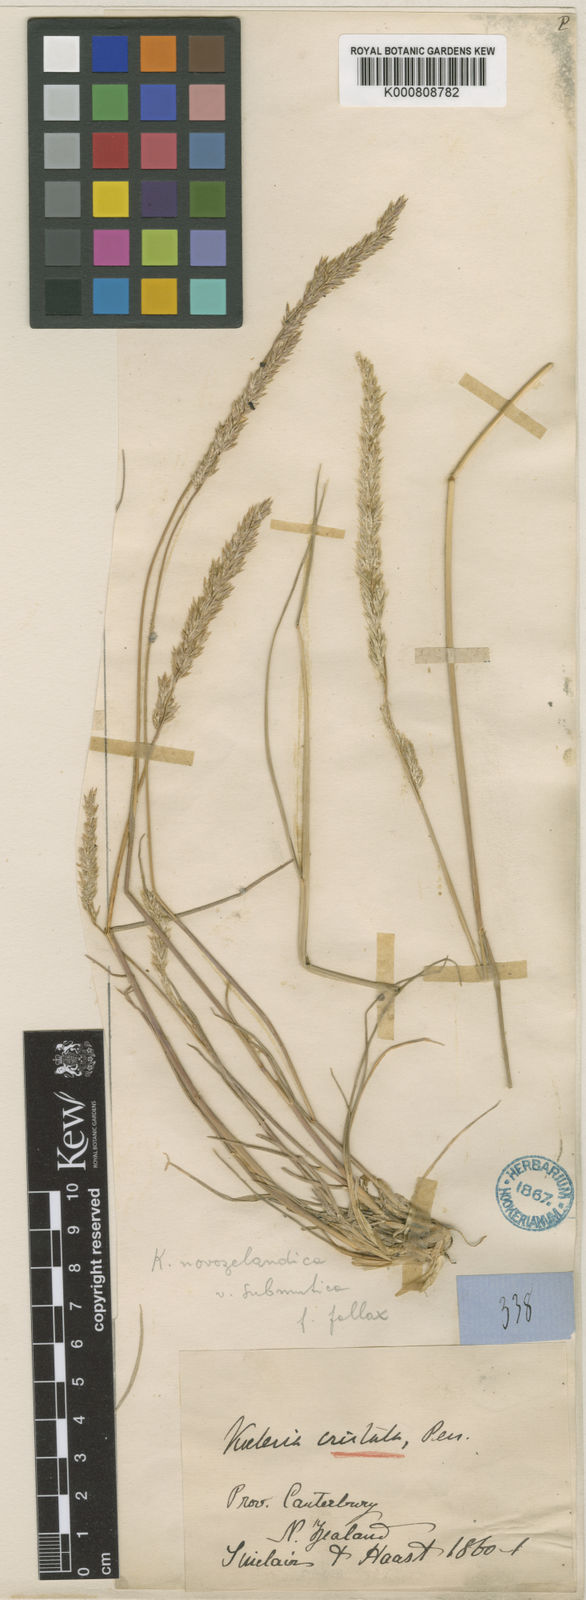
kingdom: Plantae
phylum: Tracheophyta
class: Liliopsida
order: Poales
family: Poaceae
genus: Koeleria
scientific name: Koeleria novozelandica
